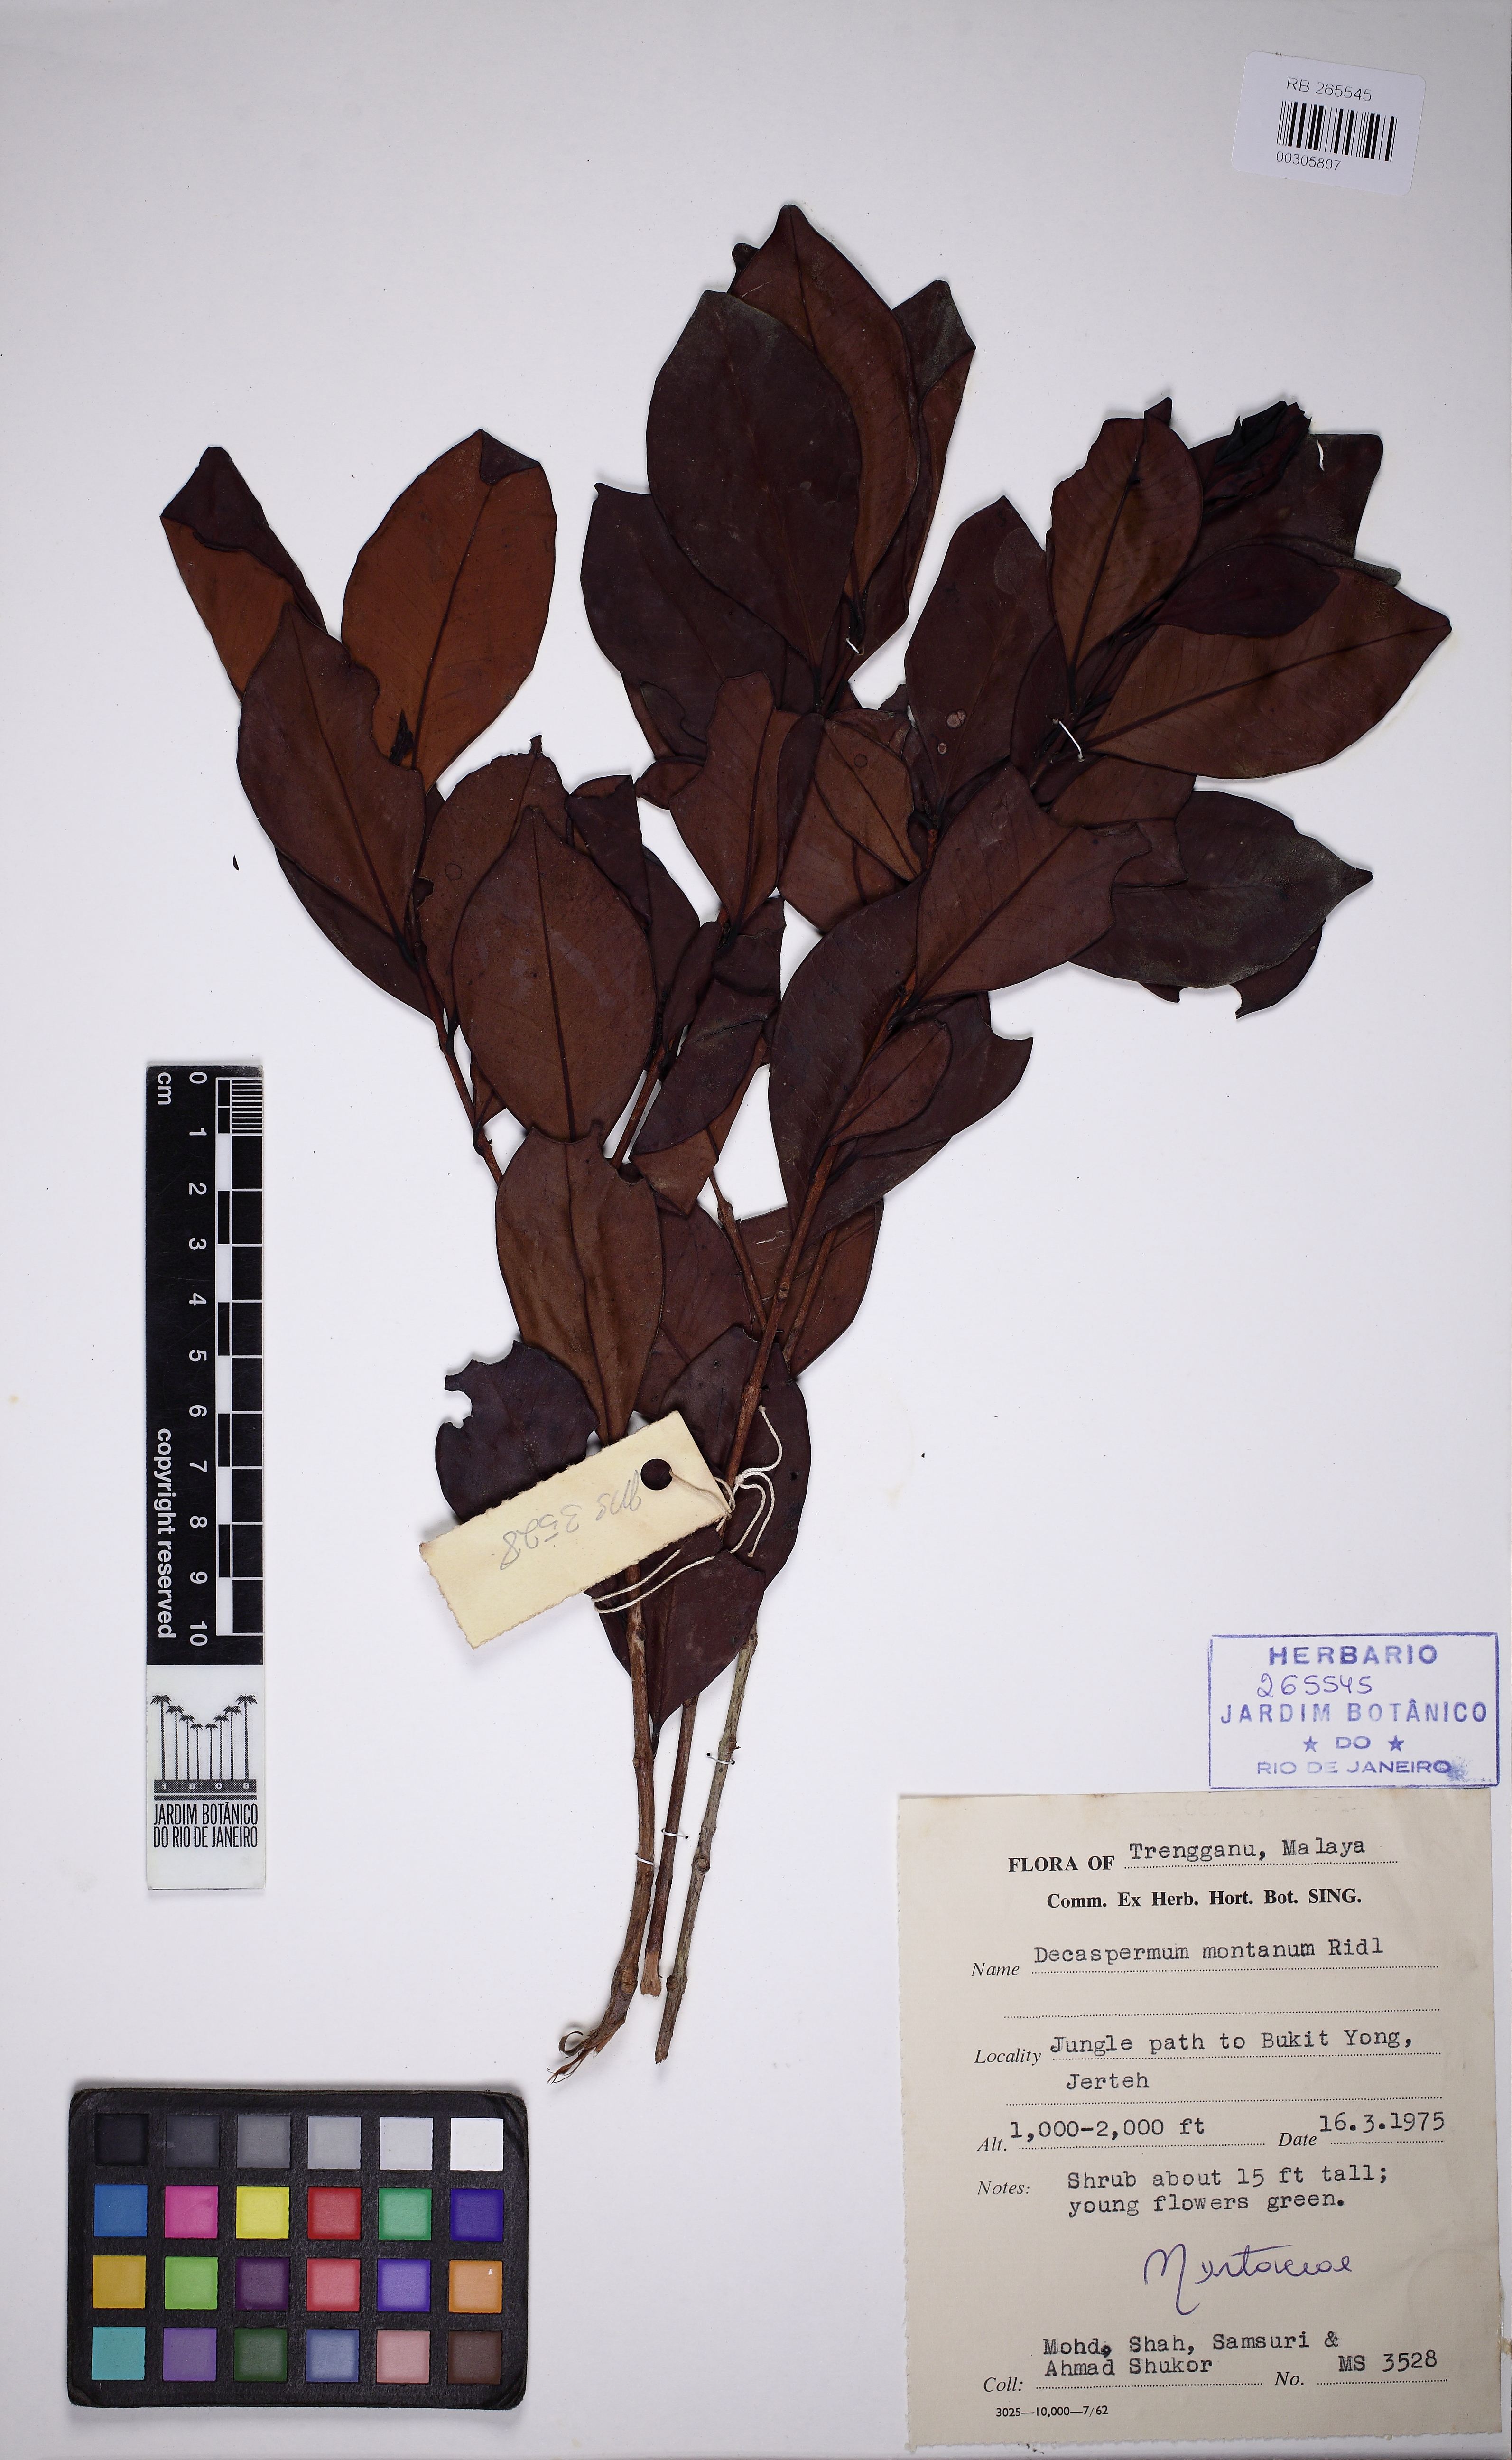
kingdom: Plantae
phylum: Tracheophyta
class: Magnoliopsida
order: Myrtales
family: Myrtaceae
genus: Decaspermum
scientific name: Decaspermum montanum
